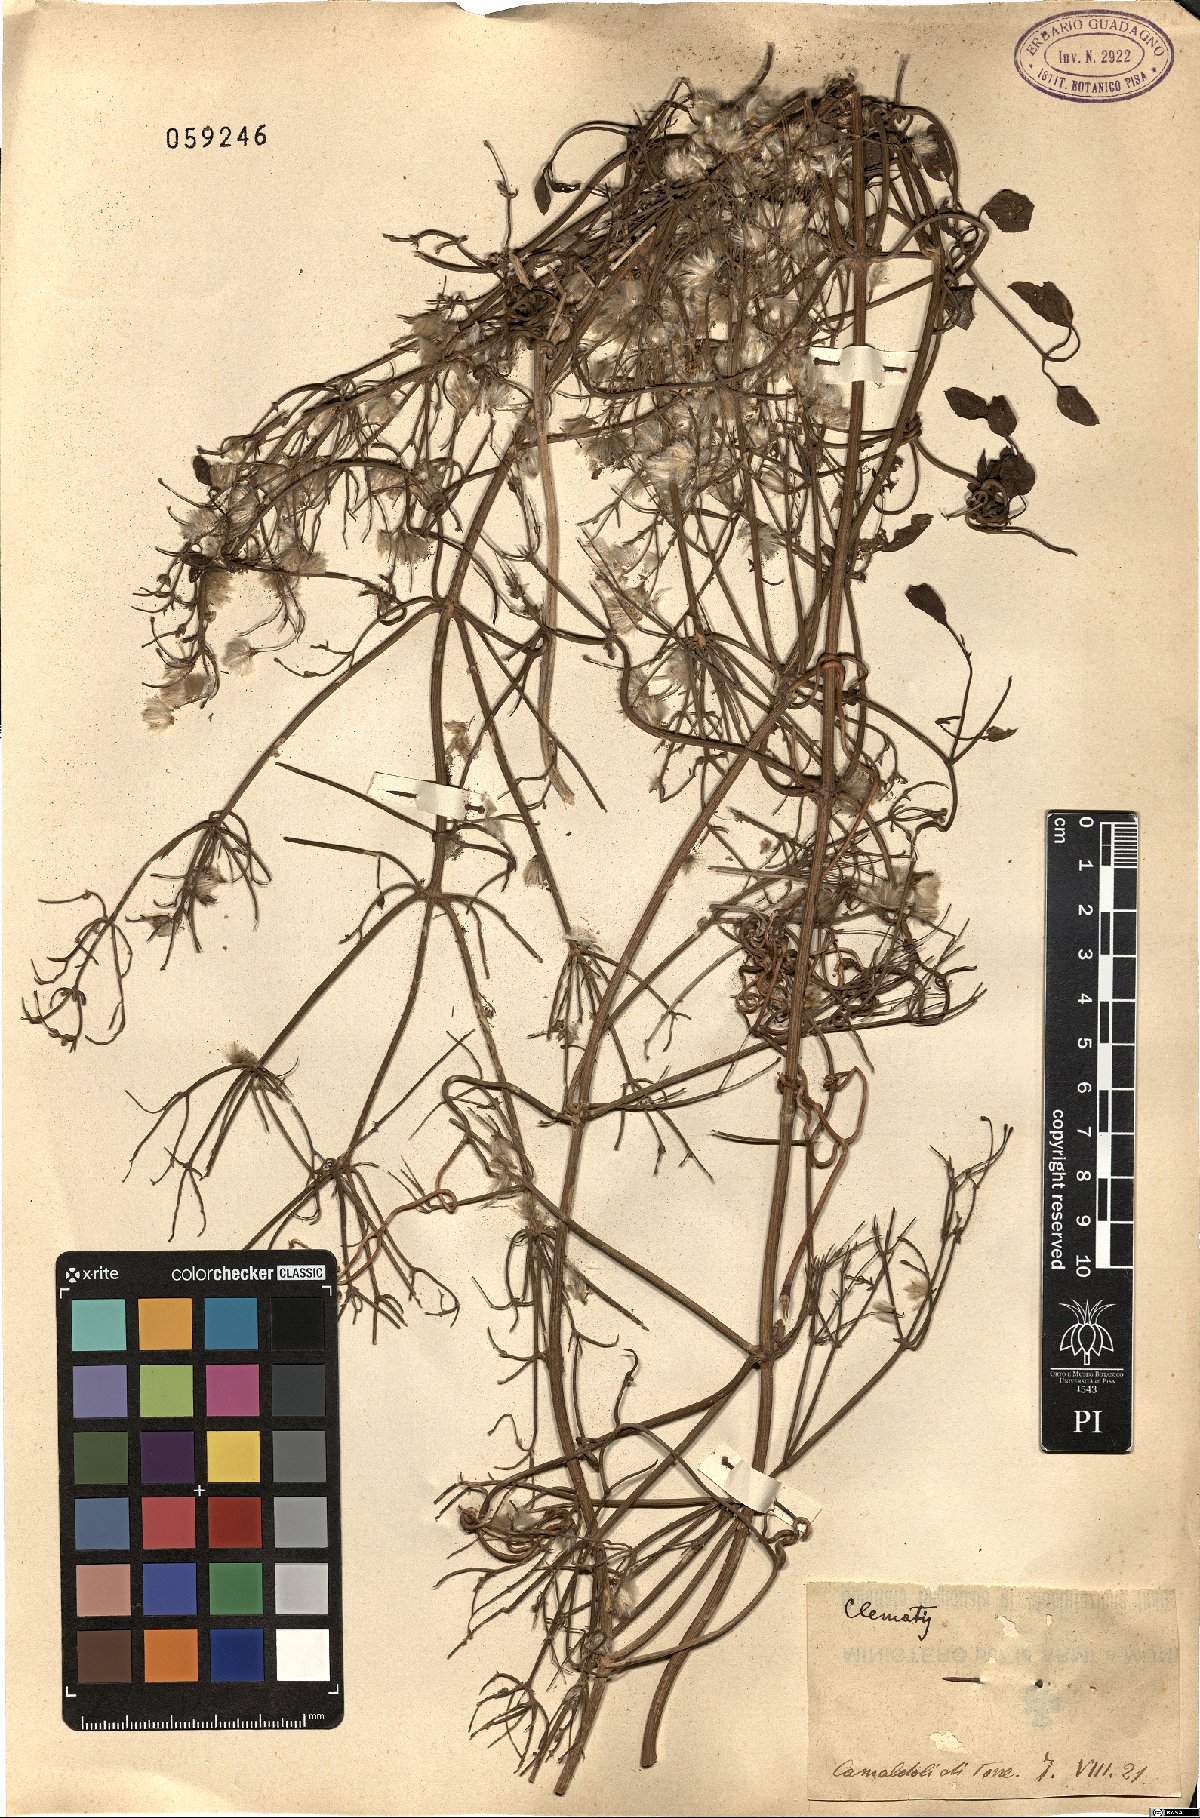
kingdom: Plantae
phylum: Tracheophyta
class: Magnoliopsida
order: Ranunculales
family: Ranunculaceae
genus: Clematis
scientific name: Clematis
